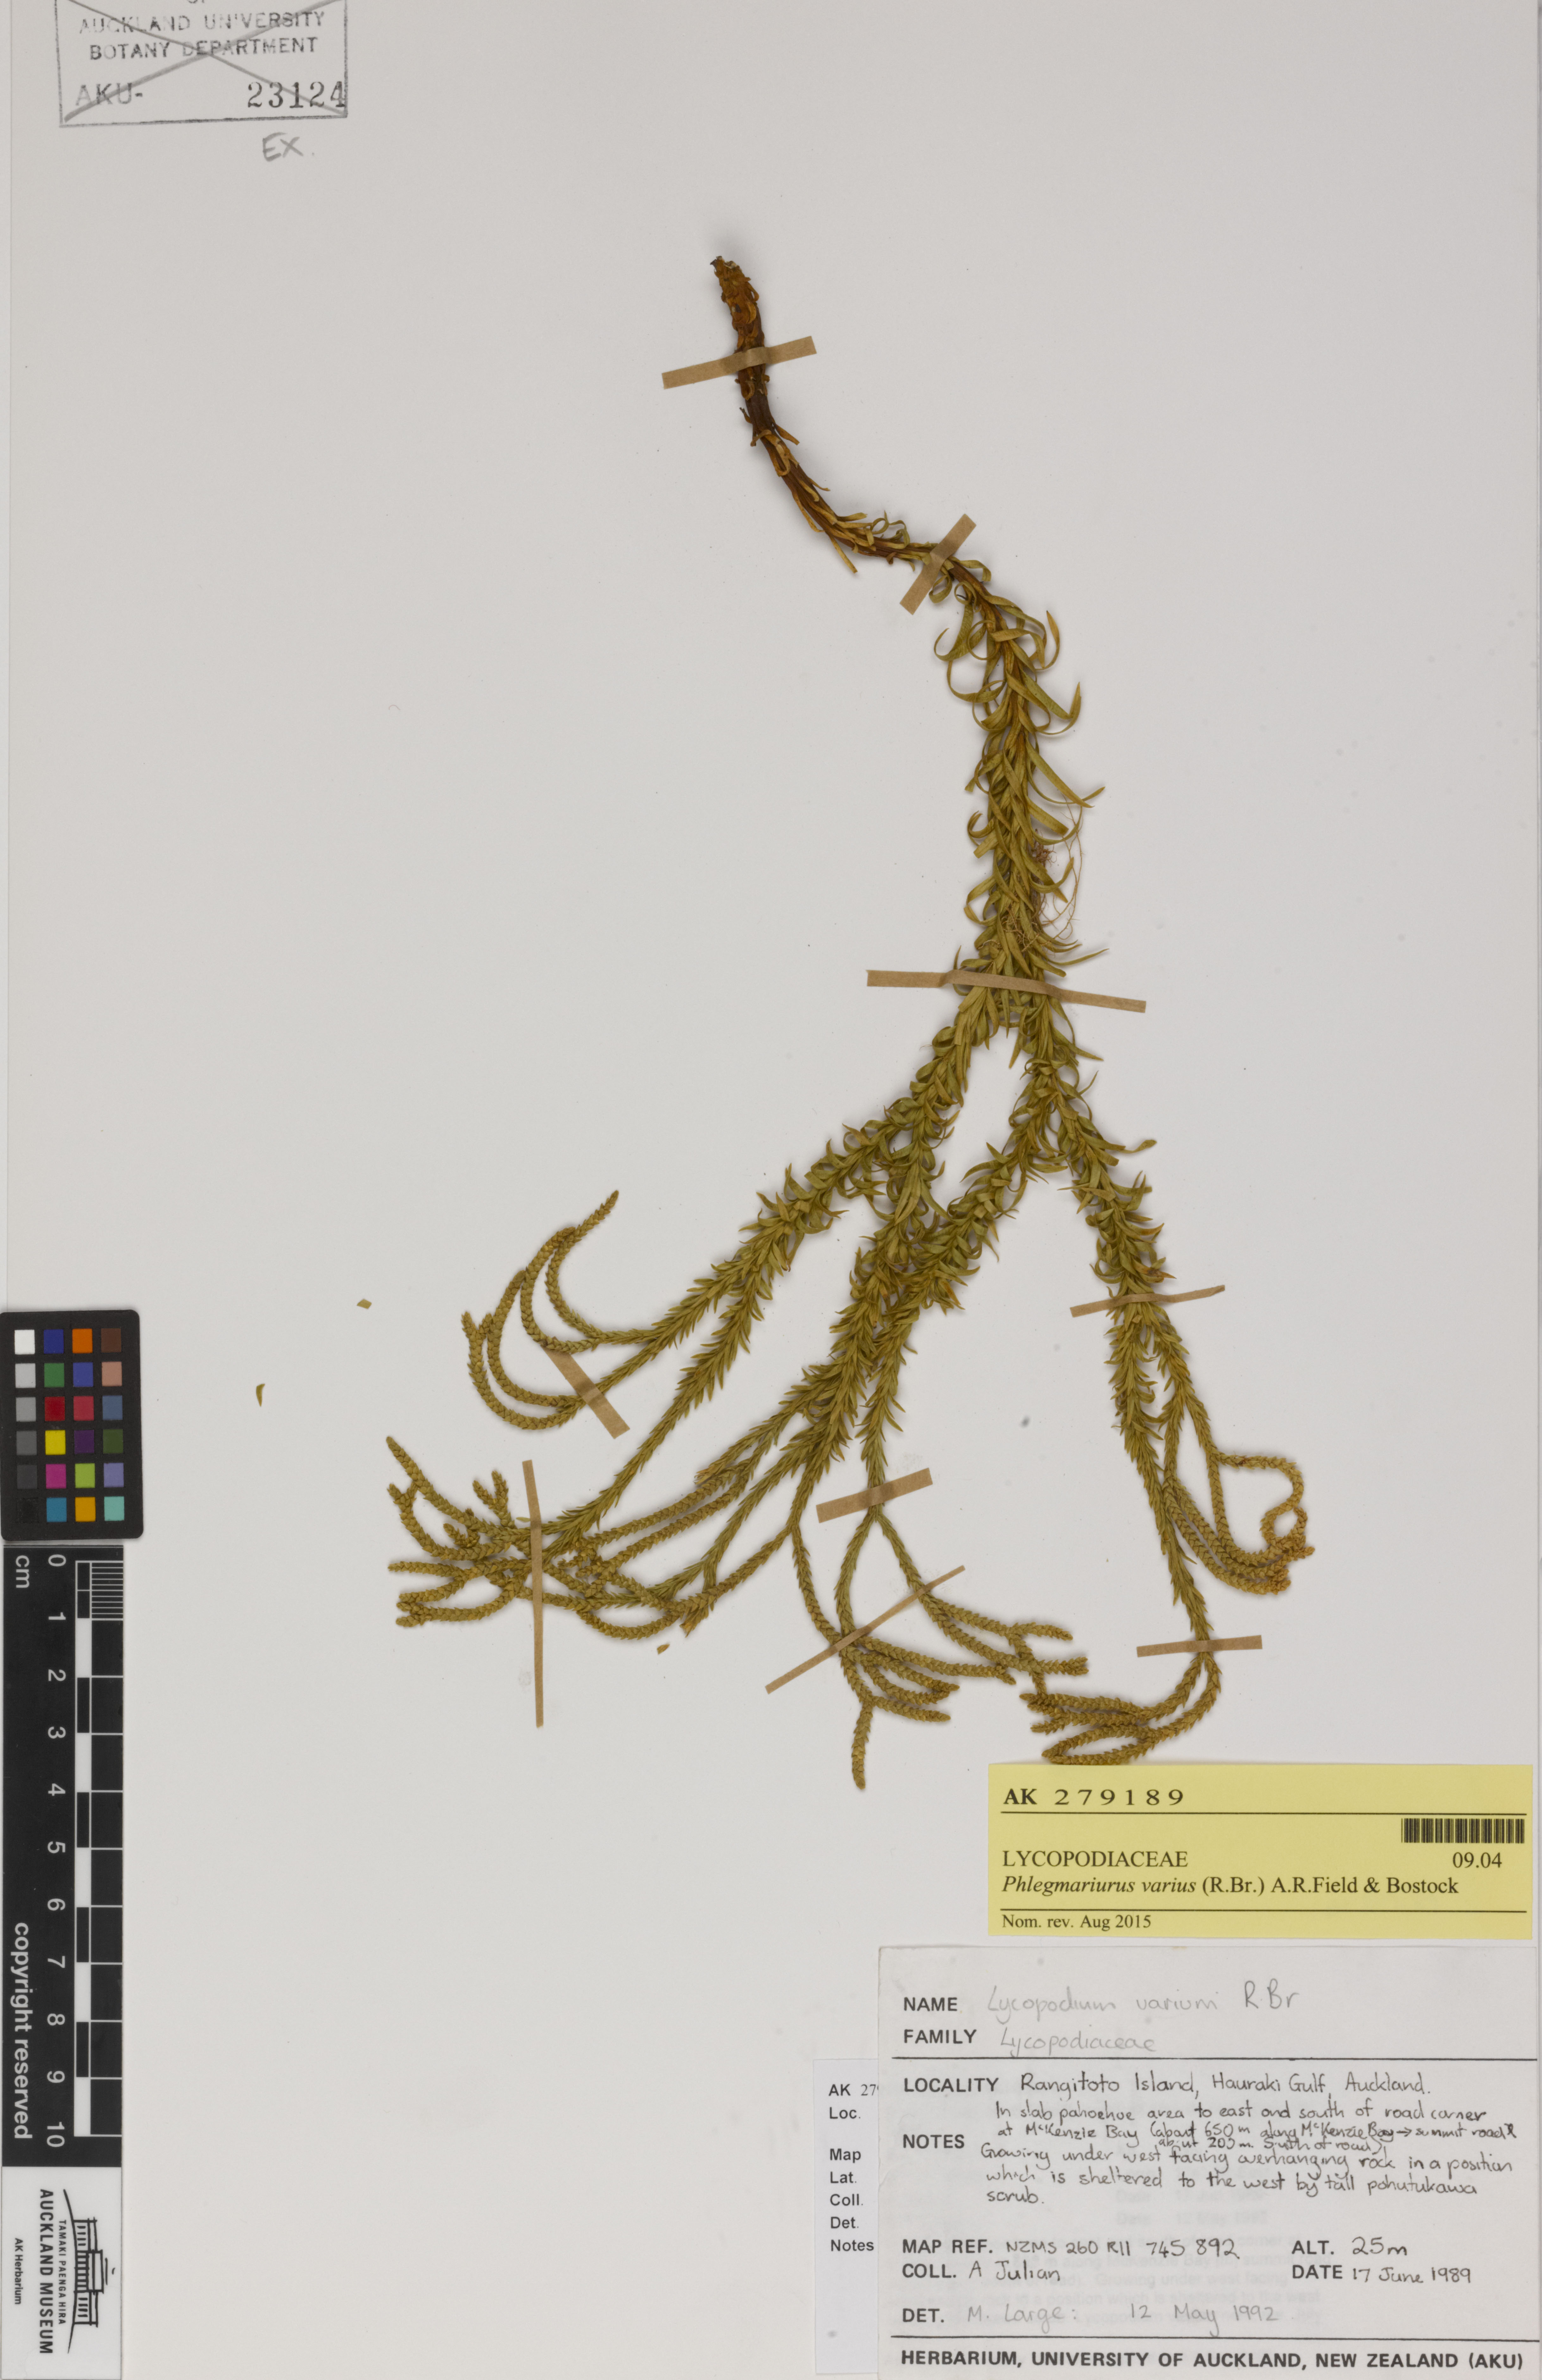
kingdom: Plantae
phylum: Tracheophyta
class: Lycopodiopsida
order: Lycopodiales
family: Lycopodiaceae
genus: Phlegmariurus
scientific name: Phlegmariurus billardierei
